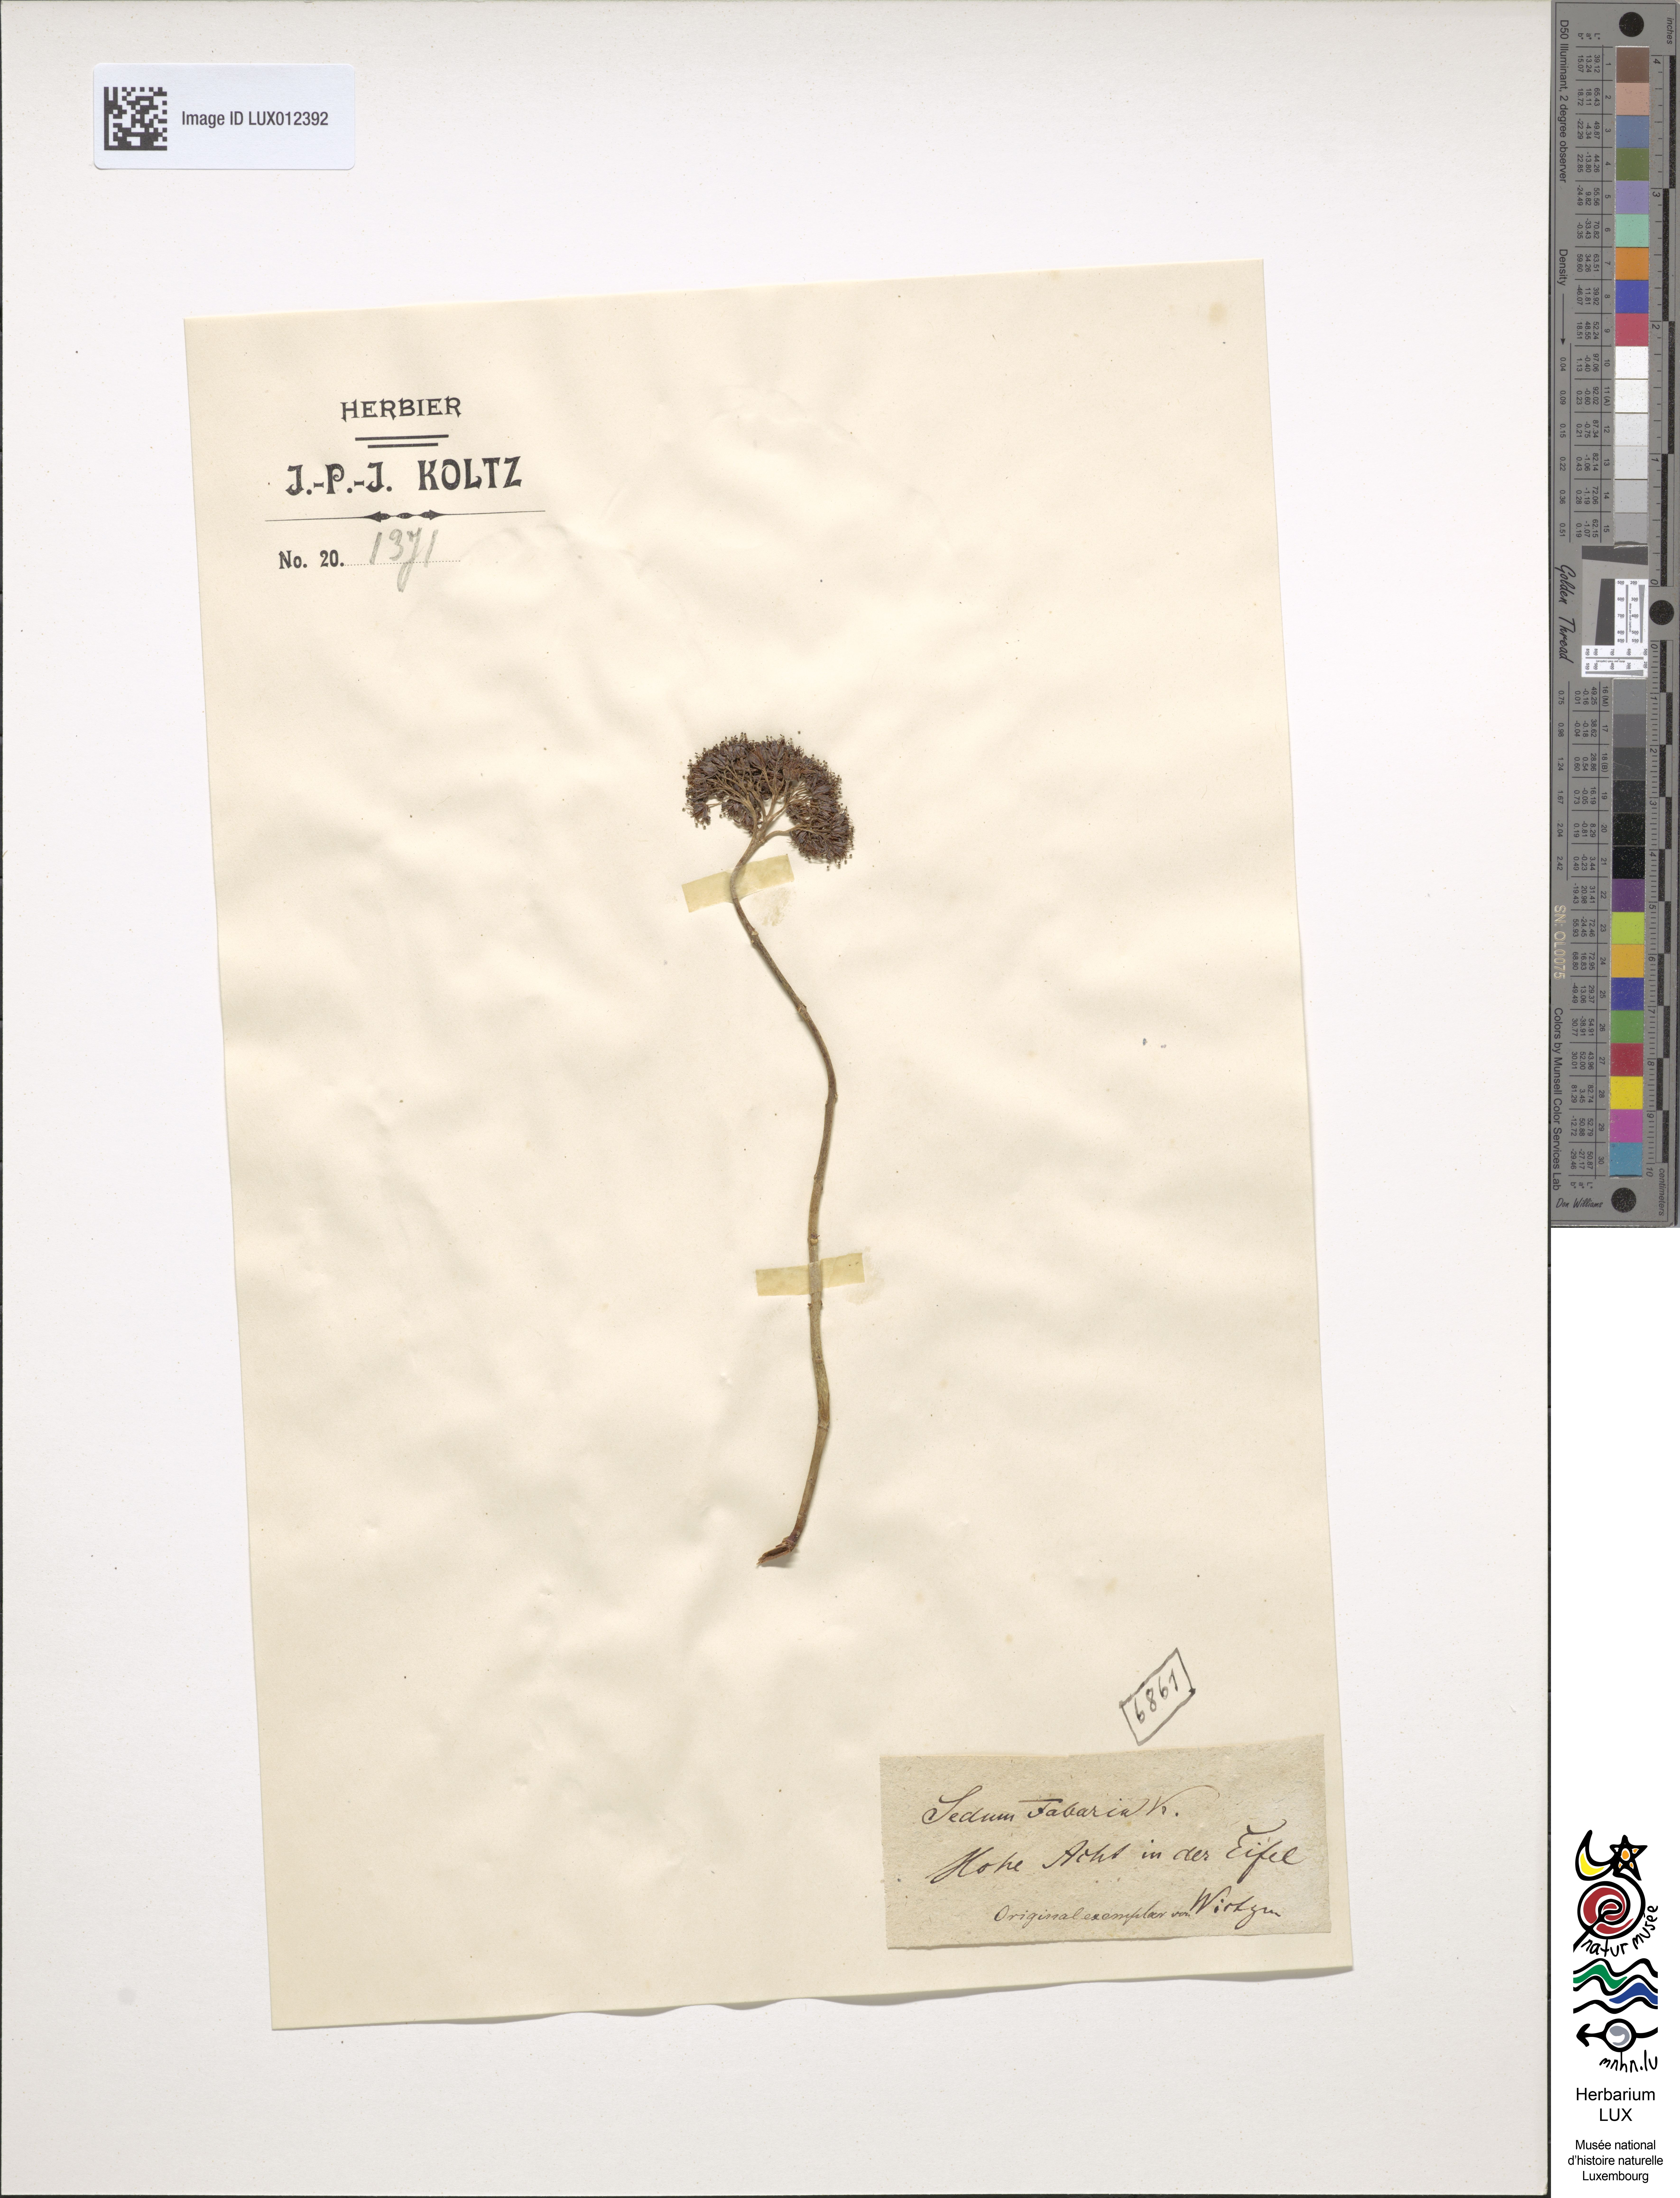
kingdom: Plantae
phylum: Tracheophyta
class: Magnoliopsida
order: Saxifragales
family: Crassulaceae
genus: Hylotelephium
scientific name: Hylotelephium vulgare
